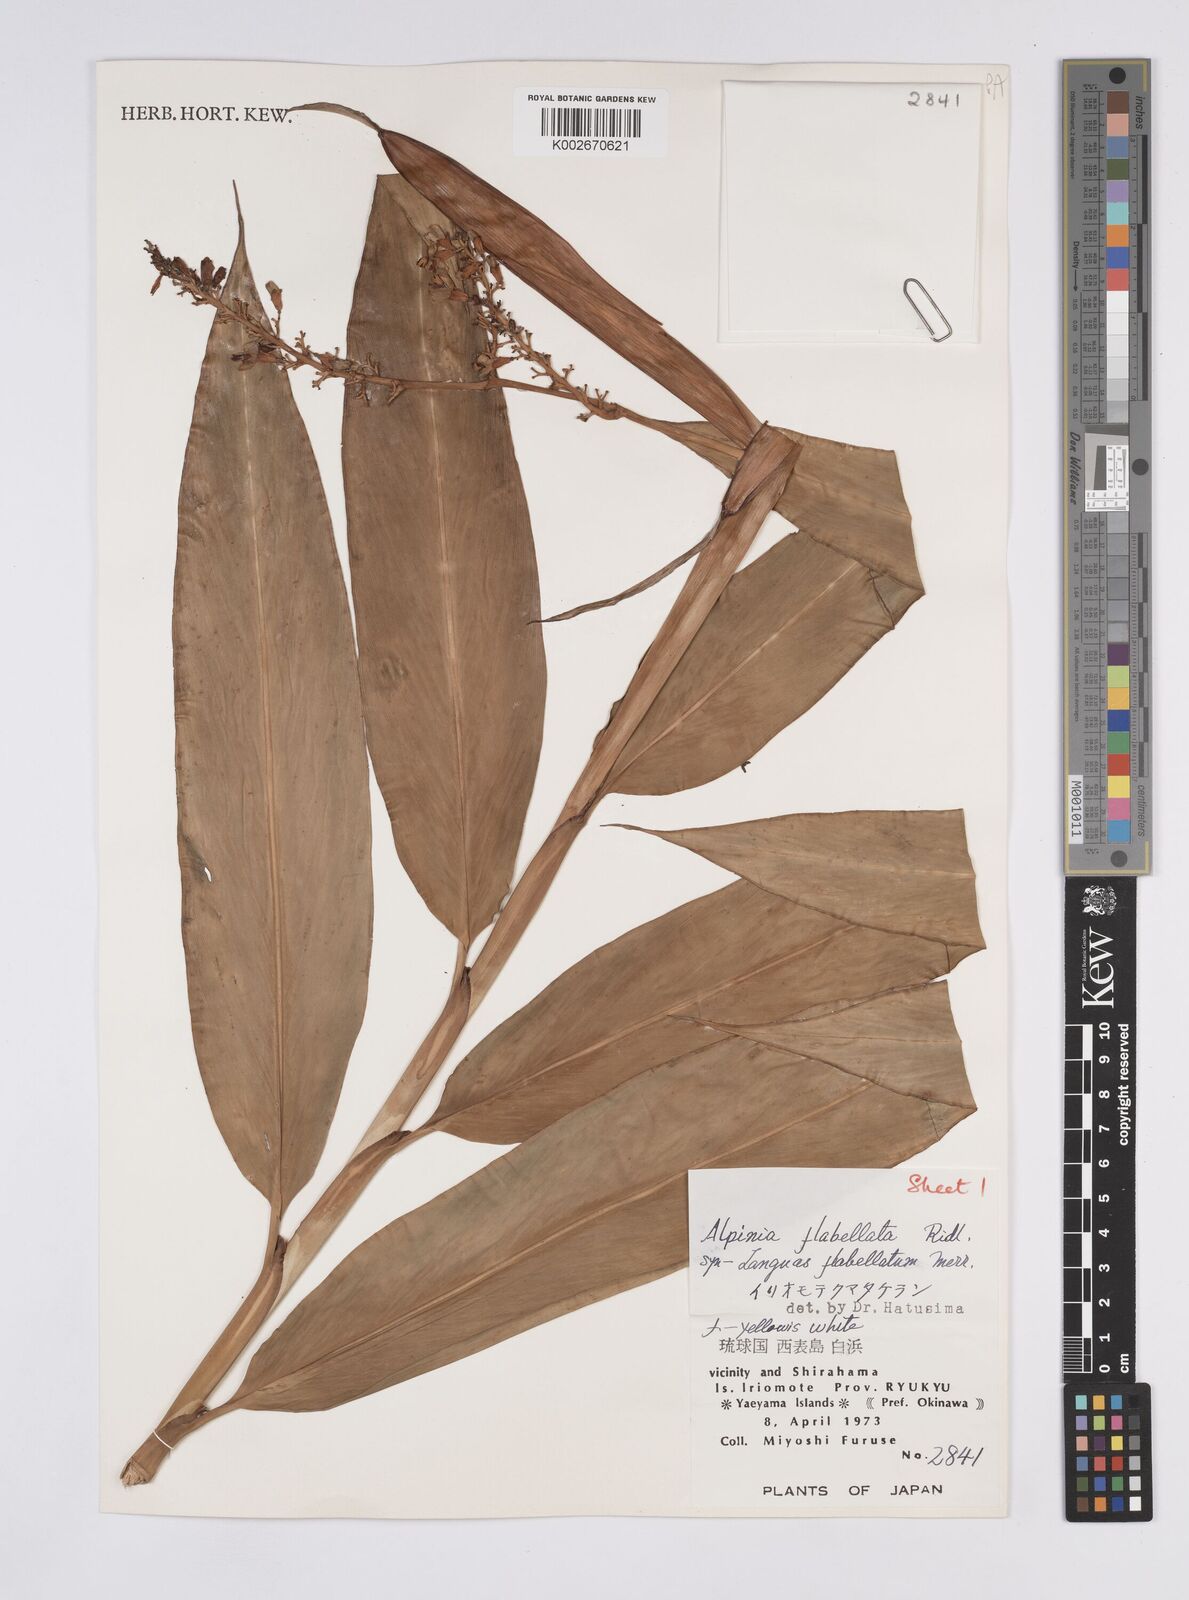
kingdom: Plantae
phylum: Tracheophyta
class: Liliopsida
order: Zingiberales
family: Zingiberaceae
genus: Alpinia
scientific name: Alpinia flabellata
